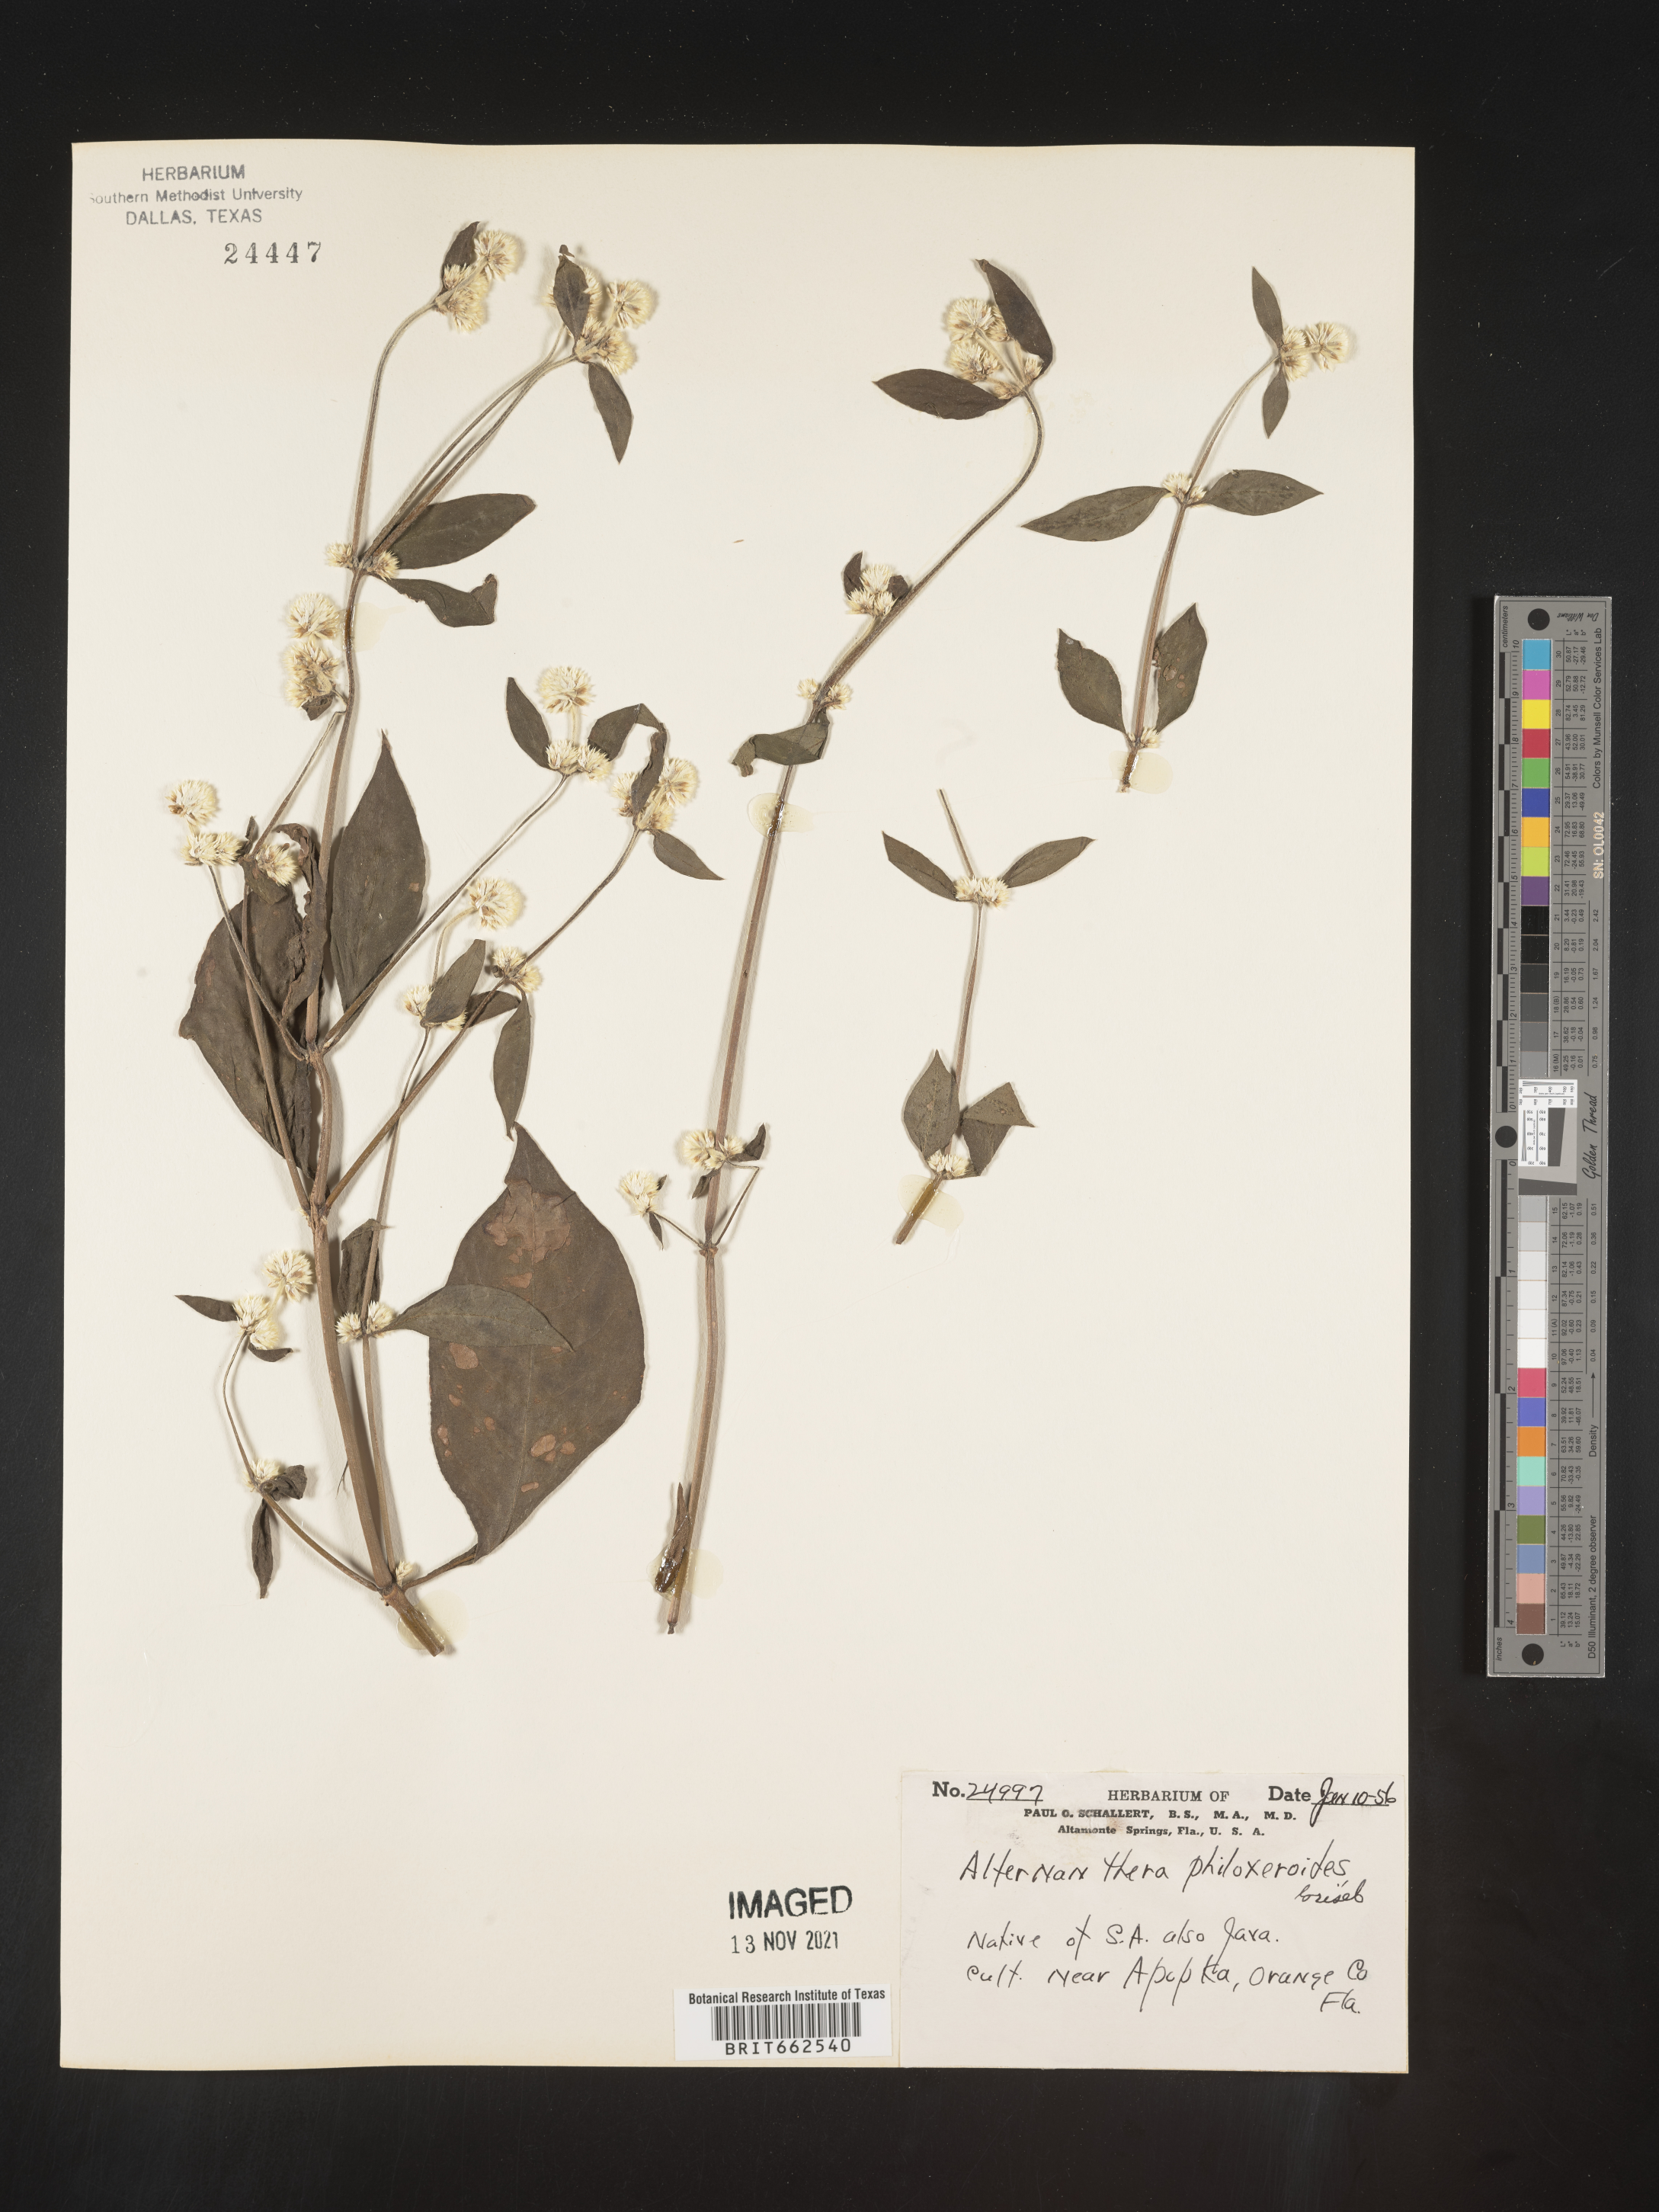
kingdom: Plantae
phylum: Tracheophyta
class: Magnoliopsida
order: Caryophyllales
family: Amaranthaceae
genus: Alternanthera
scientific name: Alternanthera
